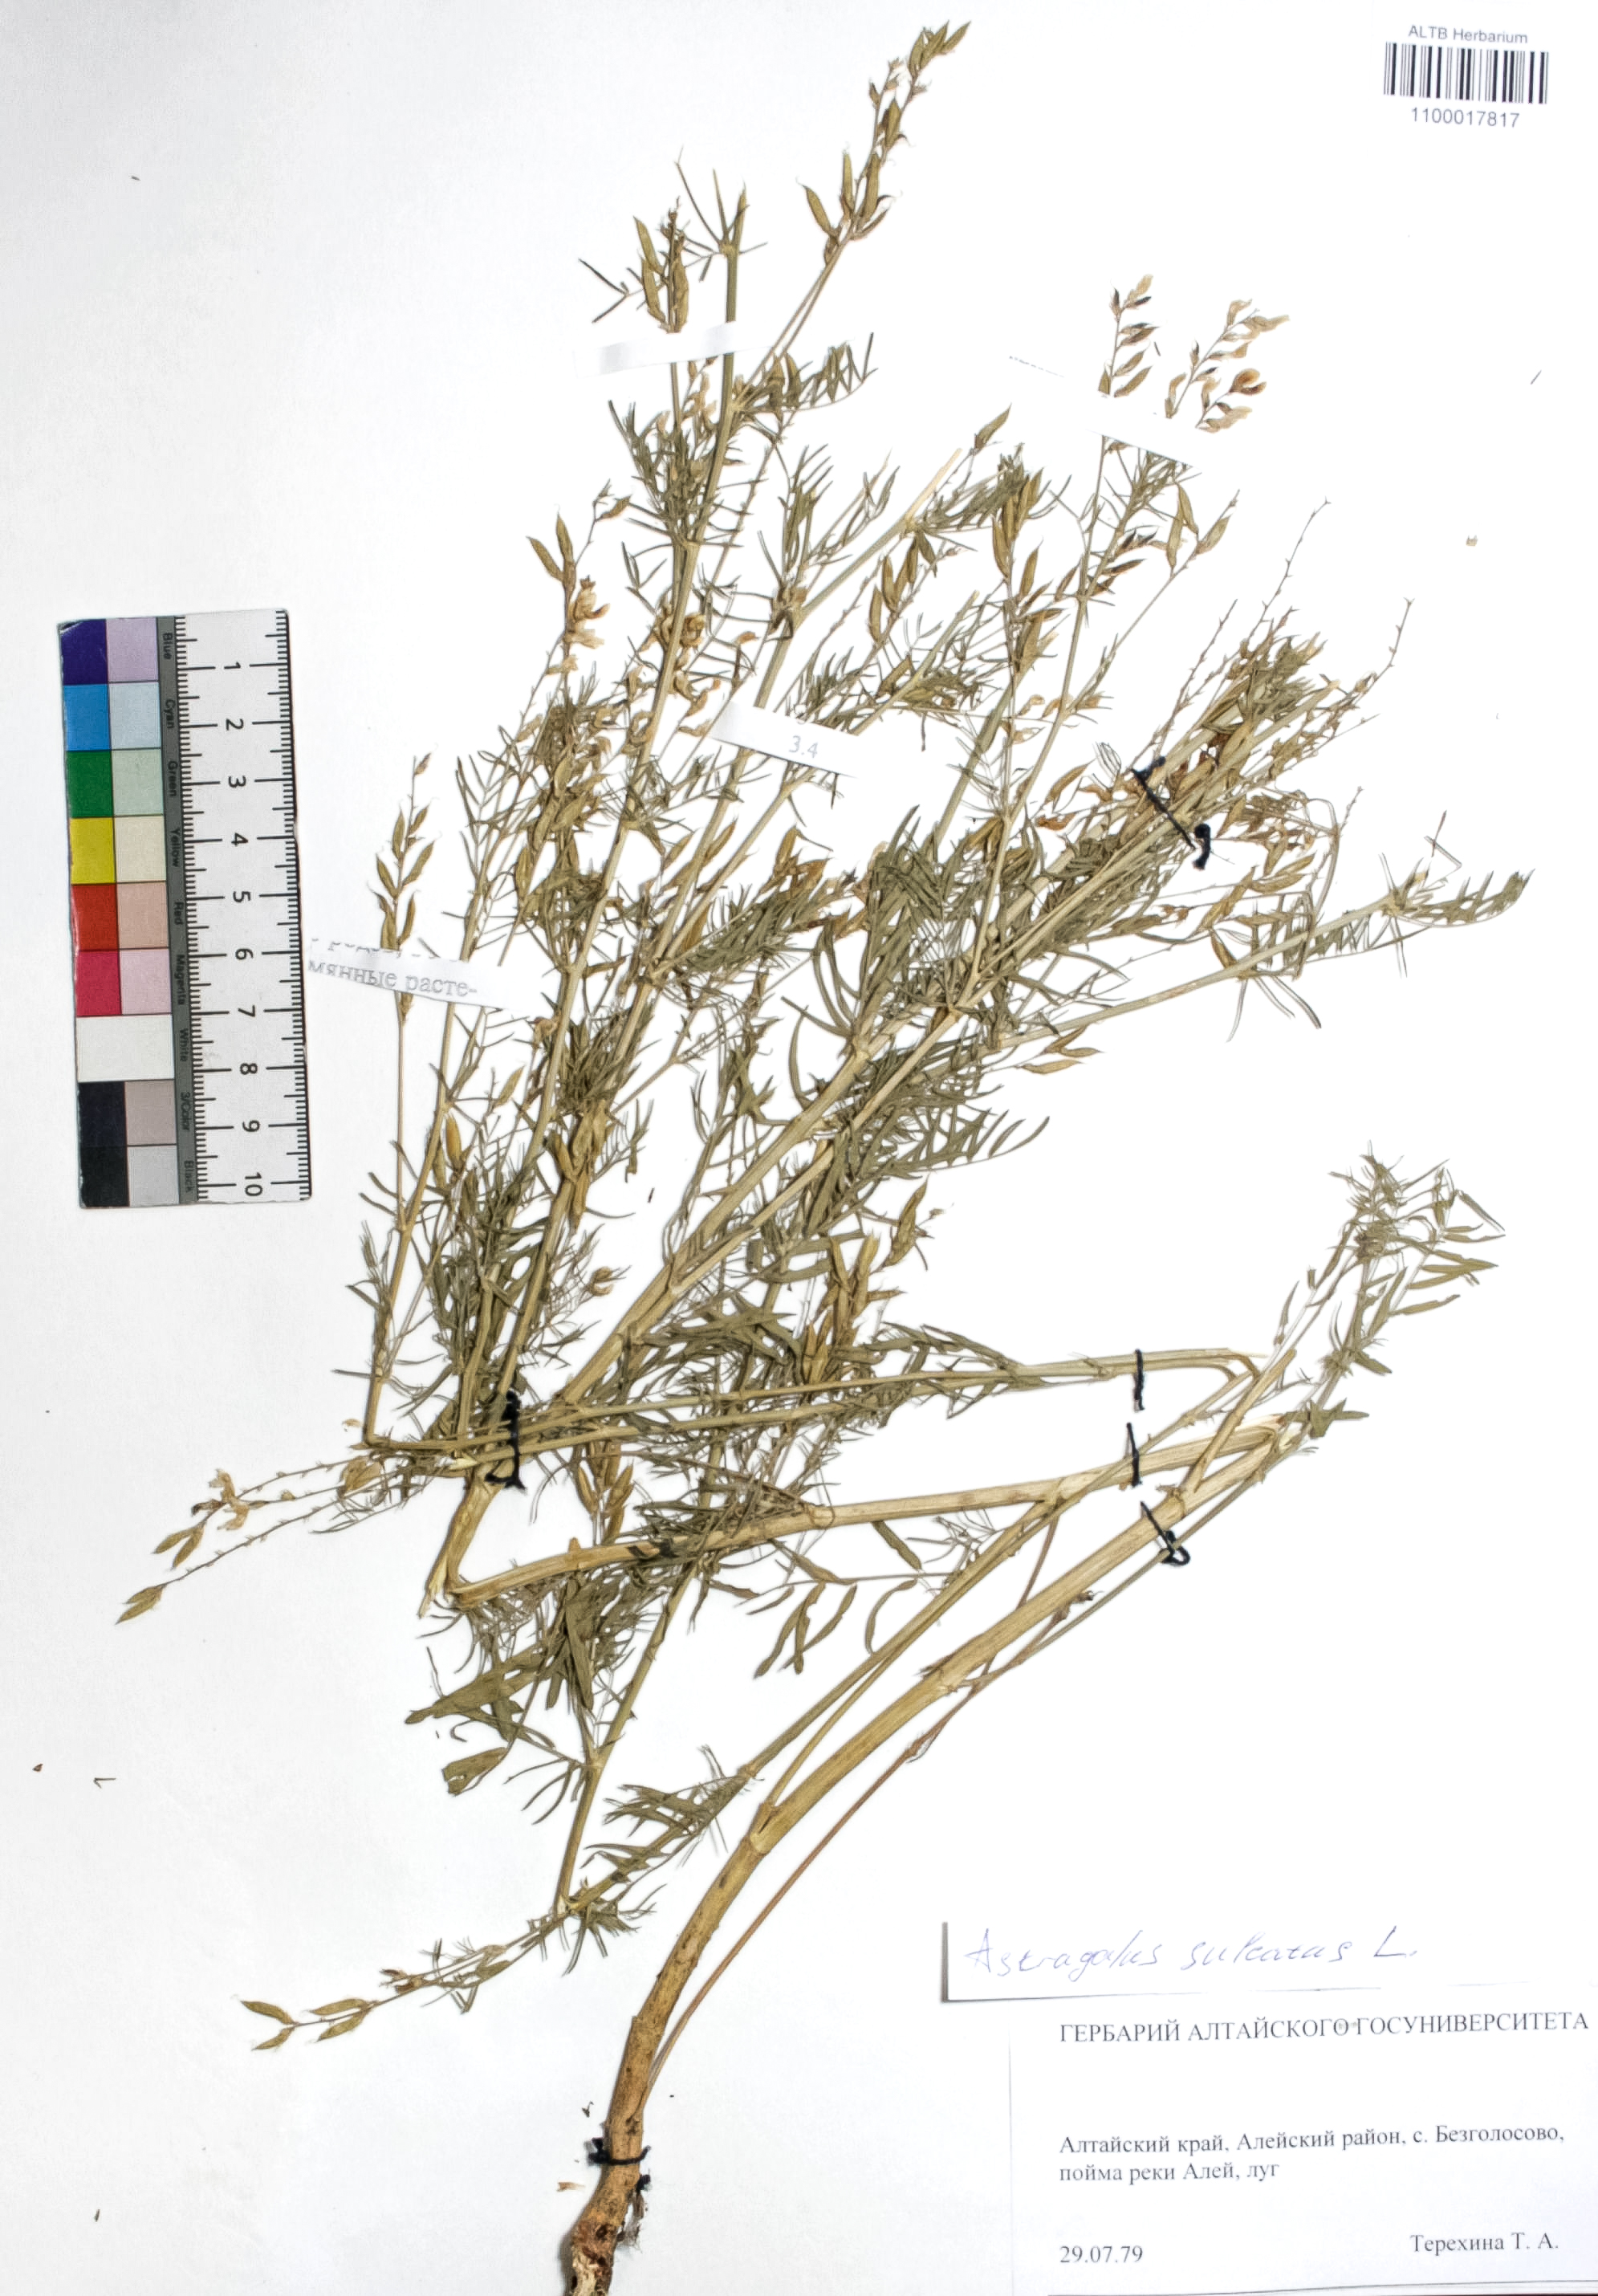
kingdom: Plantae
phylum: Tracheophyta
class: Magnoliopsida
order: Fabales
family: Fabaceae
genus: Astragalus
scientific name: Astragalus sulcatus
